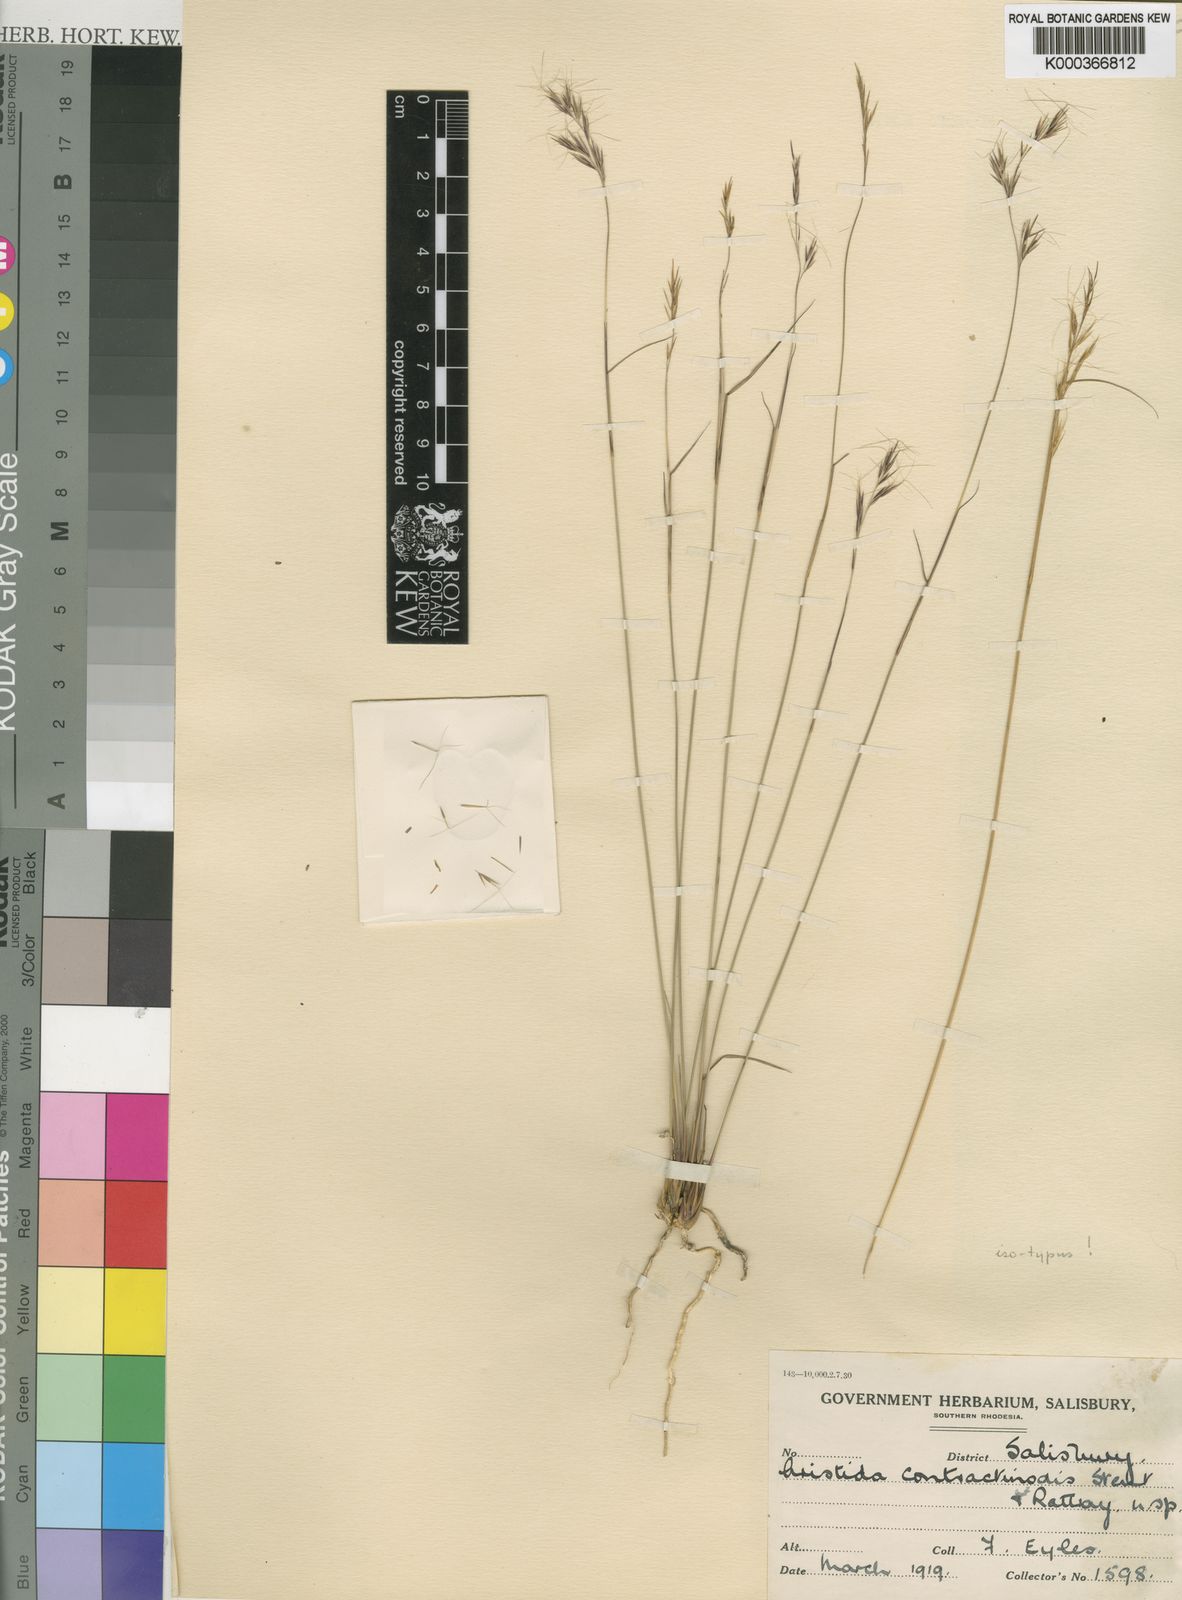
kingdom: Plantae
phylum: Tracheophyta
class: Liliopsida
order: Poales
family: Poaceae
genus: Aristida
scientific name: Aristida junciformis
